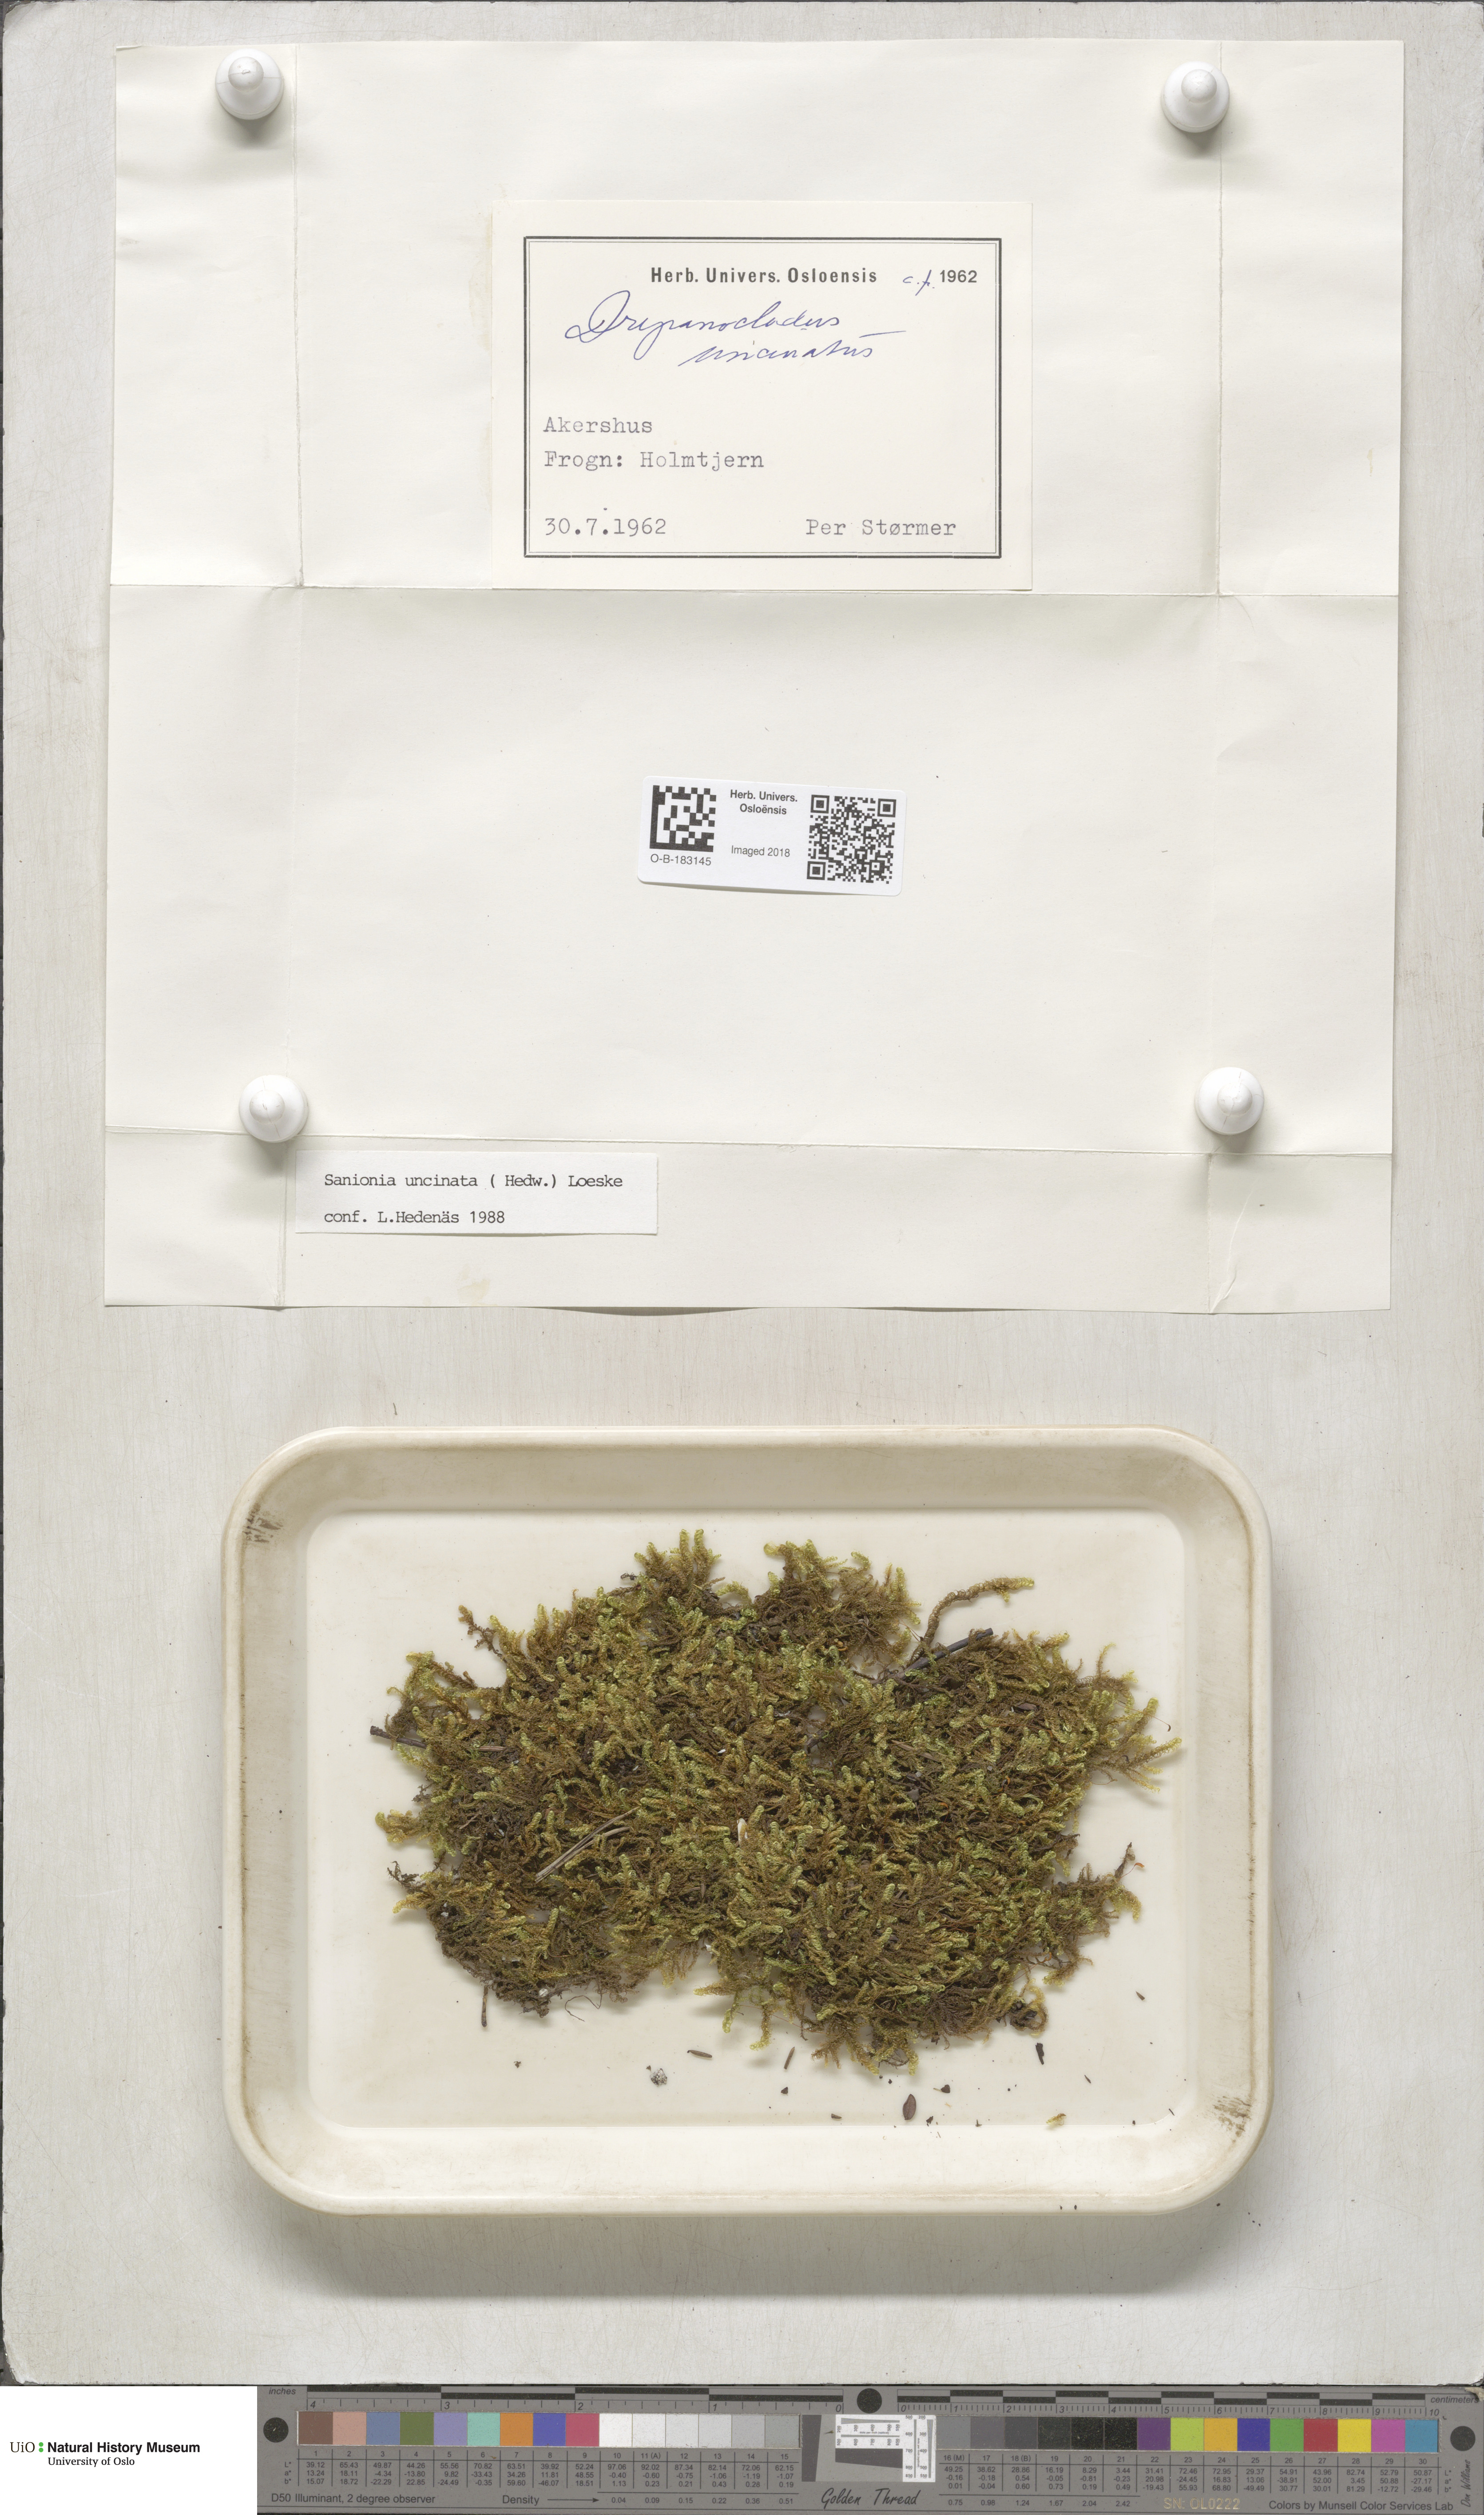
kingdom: Plantae
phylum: Bryophyta
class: Bryopsida
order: Hypnales
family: Scorpidiaceae
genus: Sanionia
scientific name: Sanionia uncinata
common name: Sickle moss
